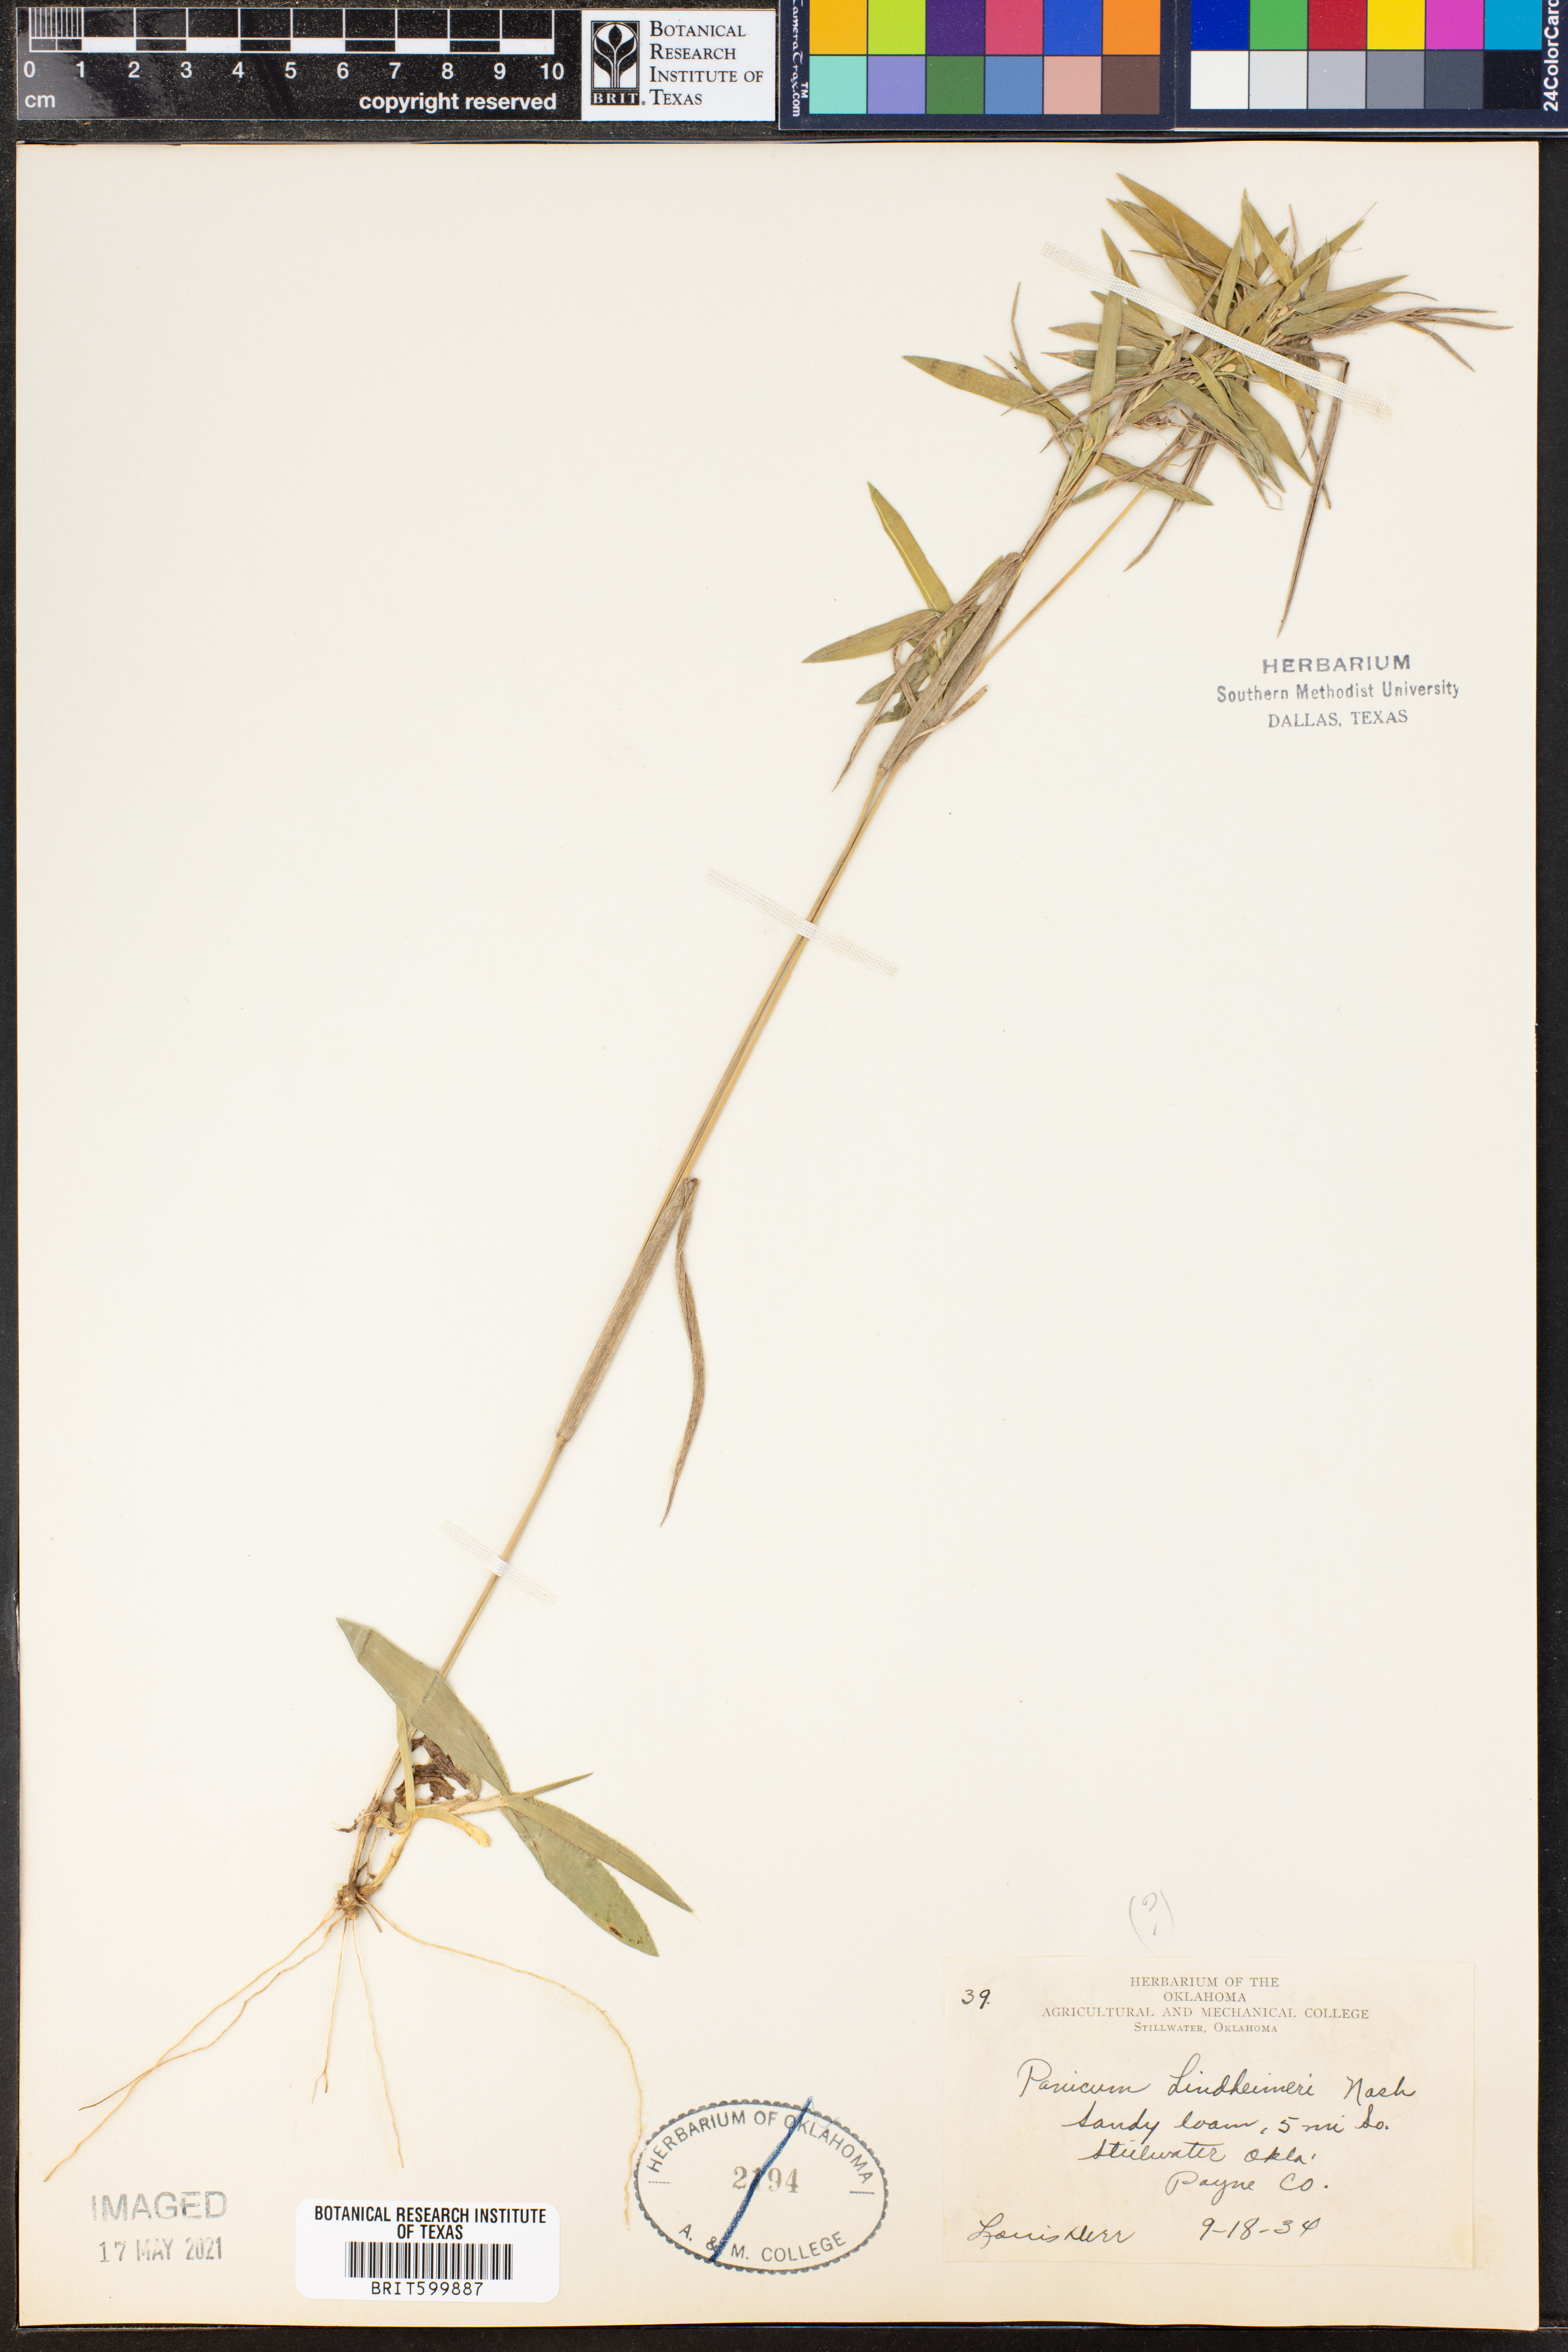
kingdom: Plantae
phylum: Tracheophyta
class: Liliopsida
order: Poales
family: Poaceae
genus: Dichanthelium
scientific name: Dichanthelium lindheimeri
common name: Lindheimer's panicgrass
